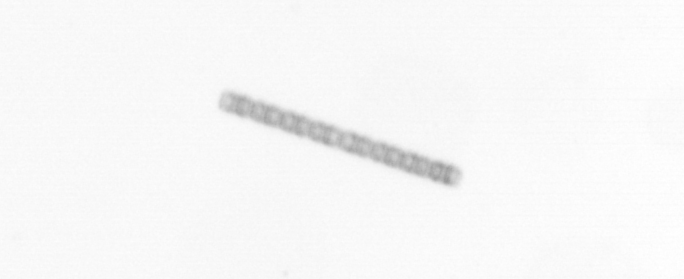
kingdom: Chromista
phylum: Ochrophyta
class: Bacillariophyceae
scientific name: Bacillariophyceae
